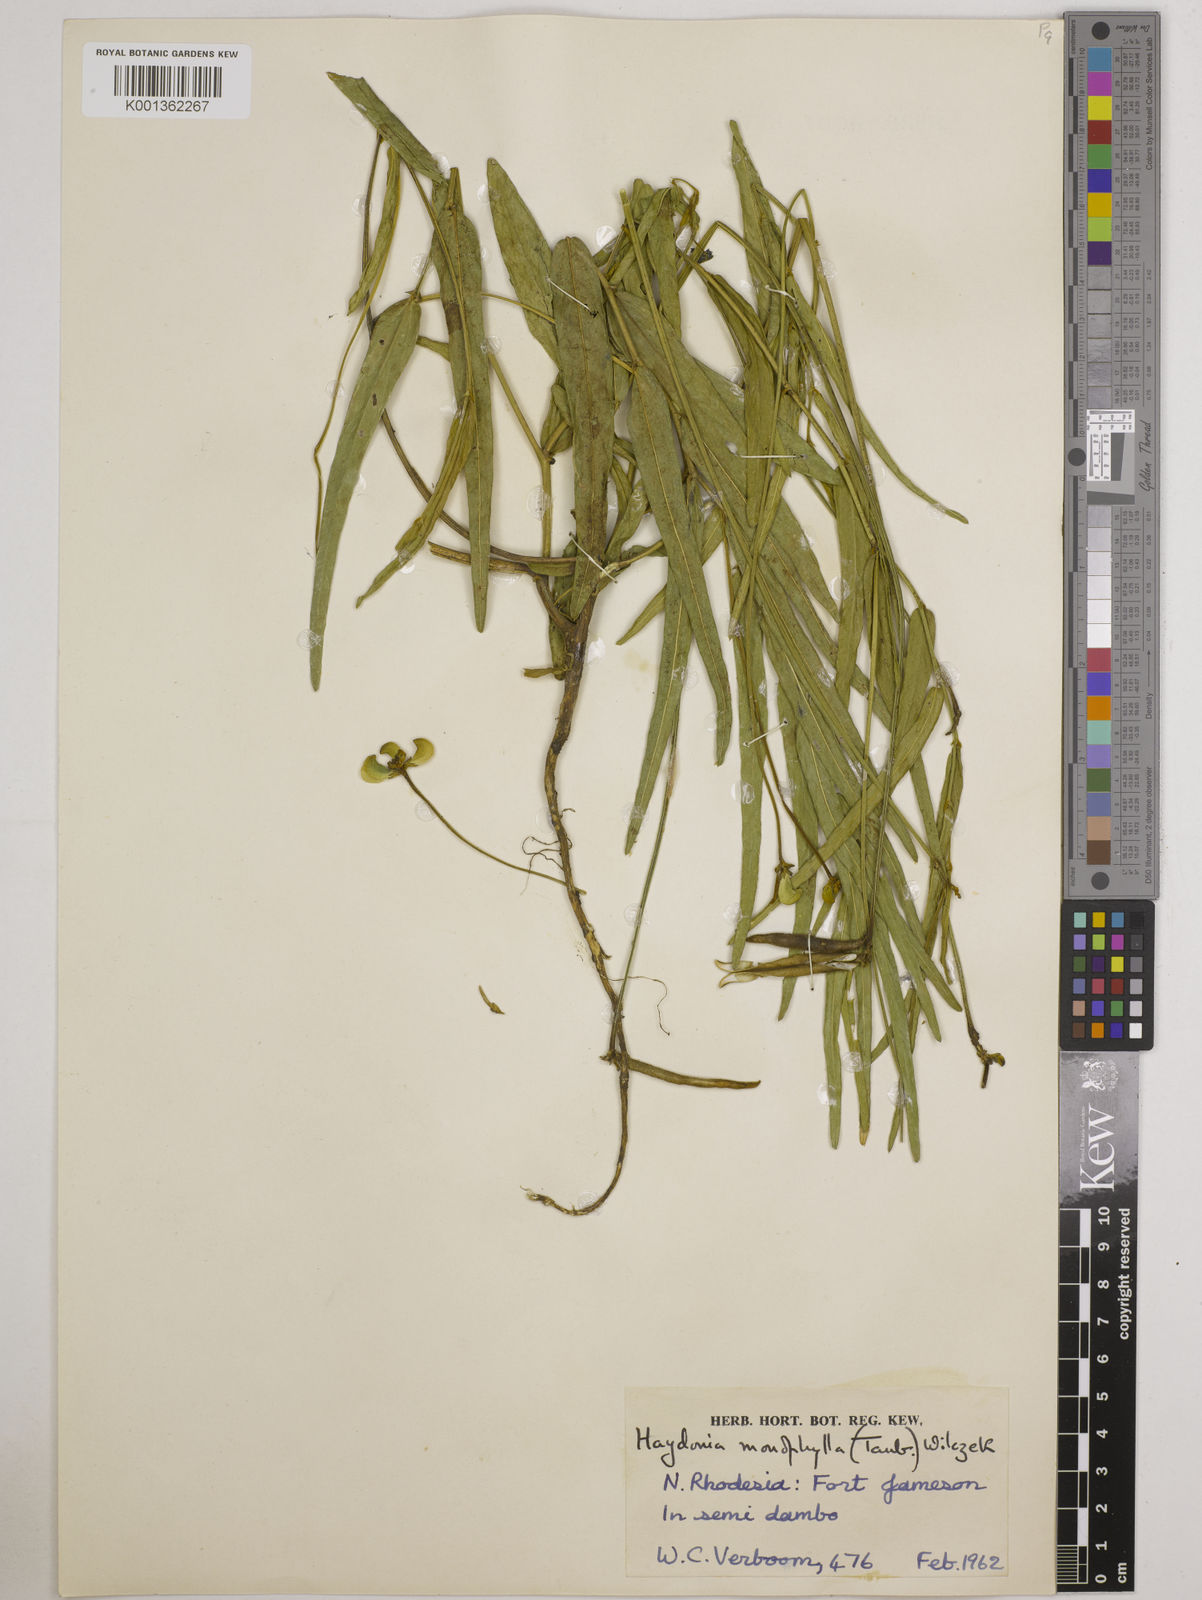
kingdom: Plantae
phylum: Tracheophyta
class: Magnoliopsida
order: Fabales
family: Fabaceae
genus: Vigna
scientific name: Vigna monophylla
